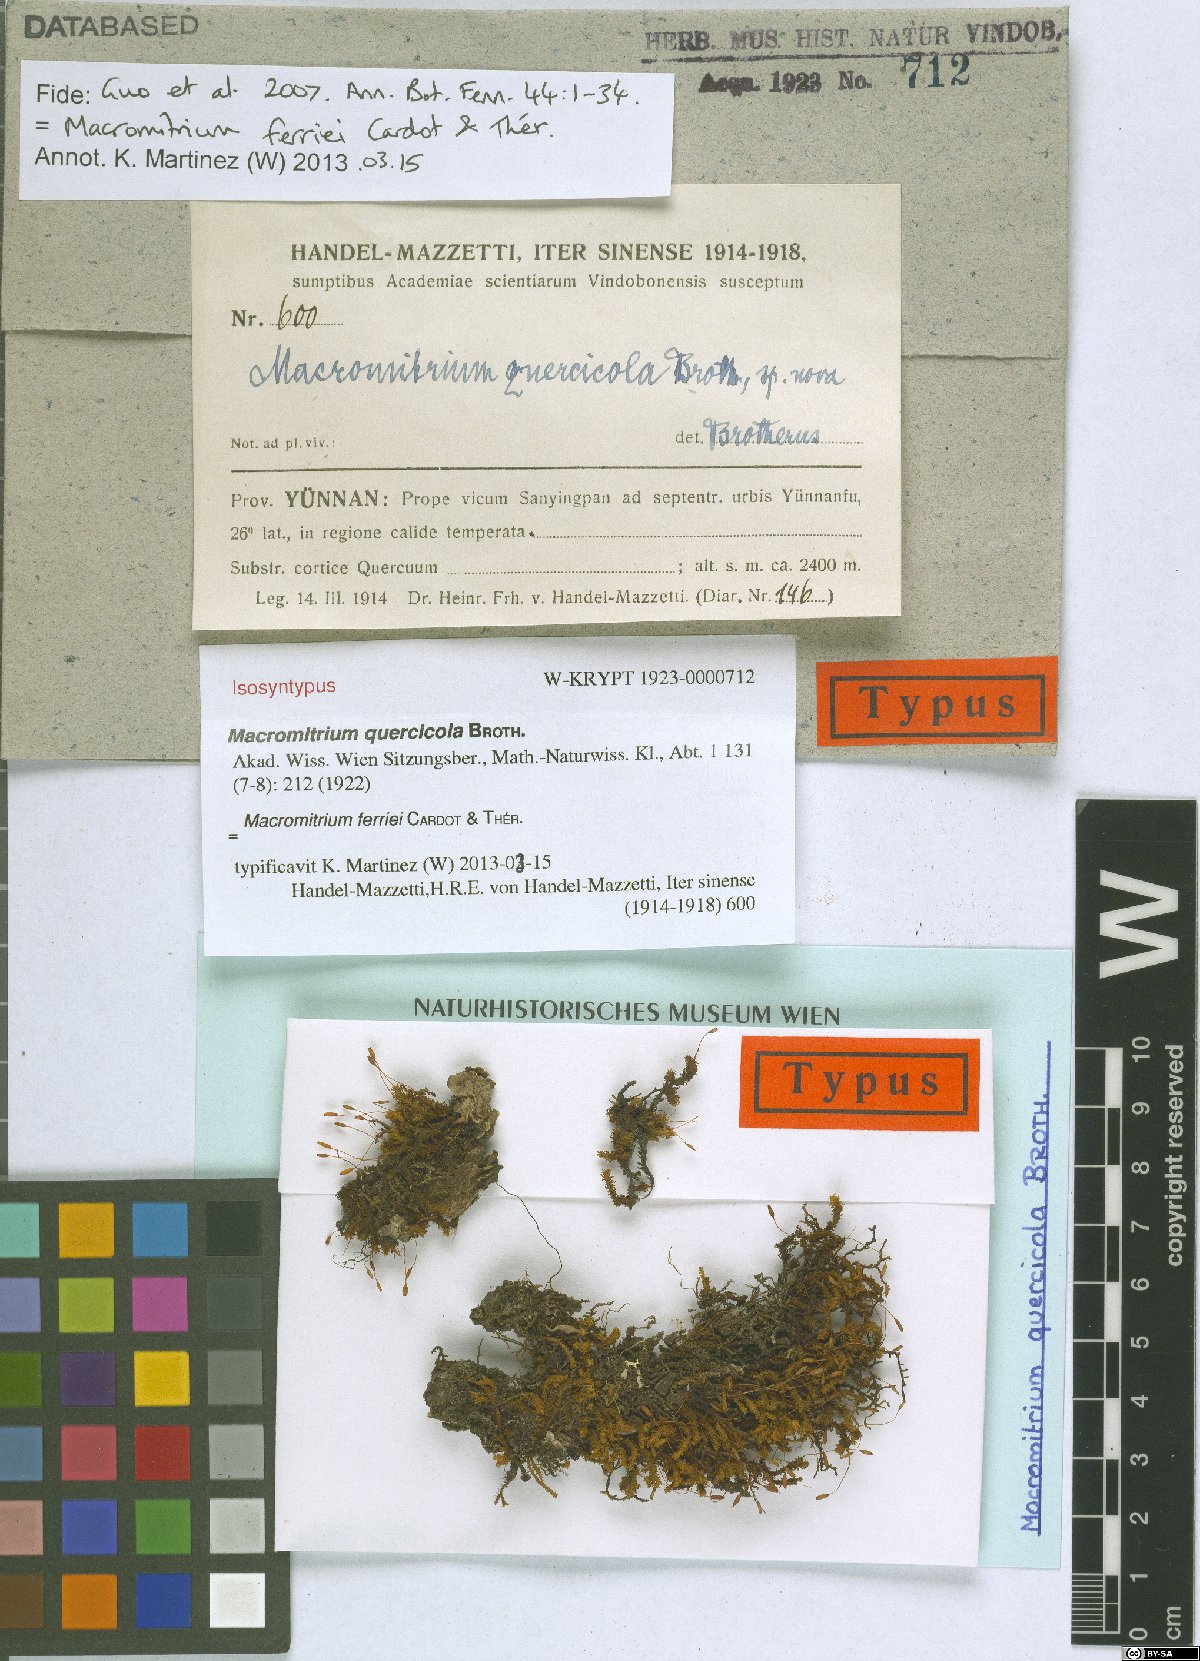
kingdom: Plantae
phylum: Bryophyta
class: Bryopsida
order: Orthotrichales
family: Orthotrichaceae
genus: Macromitrium
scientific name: Macromitrium ferriei
